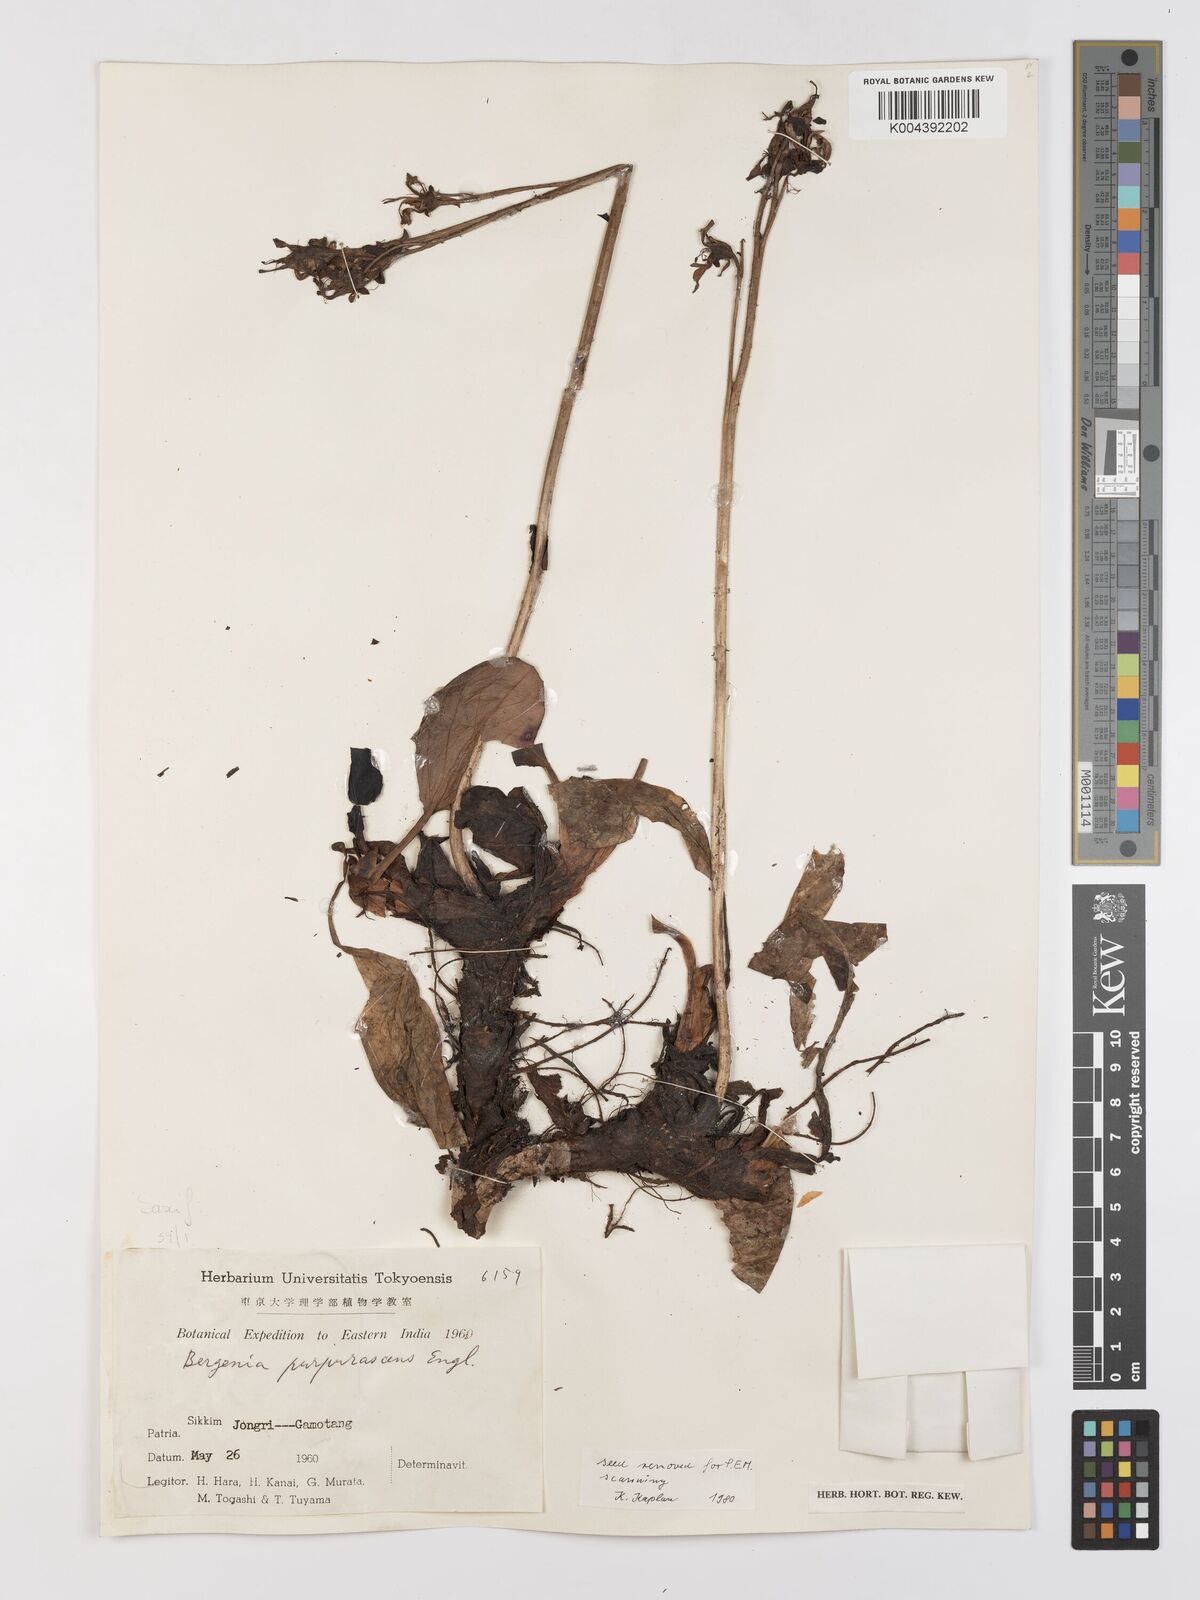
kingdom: Plantae
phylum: Tracheophyta
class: Magnoliopsida
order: Saxifragales
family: Saxifragaceae
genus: Bergenia
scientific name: Bergenia purpurascens
